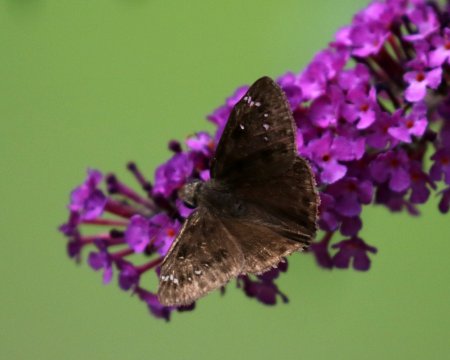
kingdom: Animalia
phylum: Arthropoda
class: Insecta
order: Lepidoptera
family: Hesperiidae
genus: Gesta
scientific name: Gesta
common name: Horace's Duskywing
